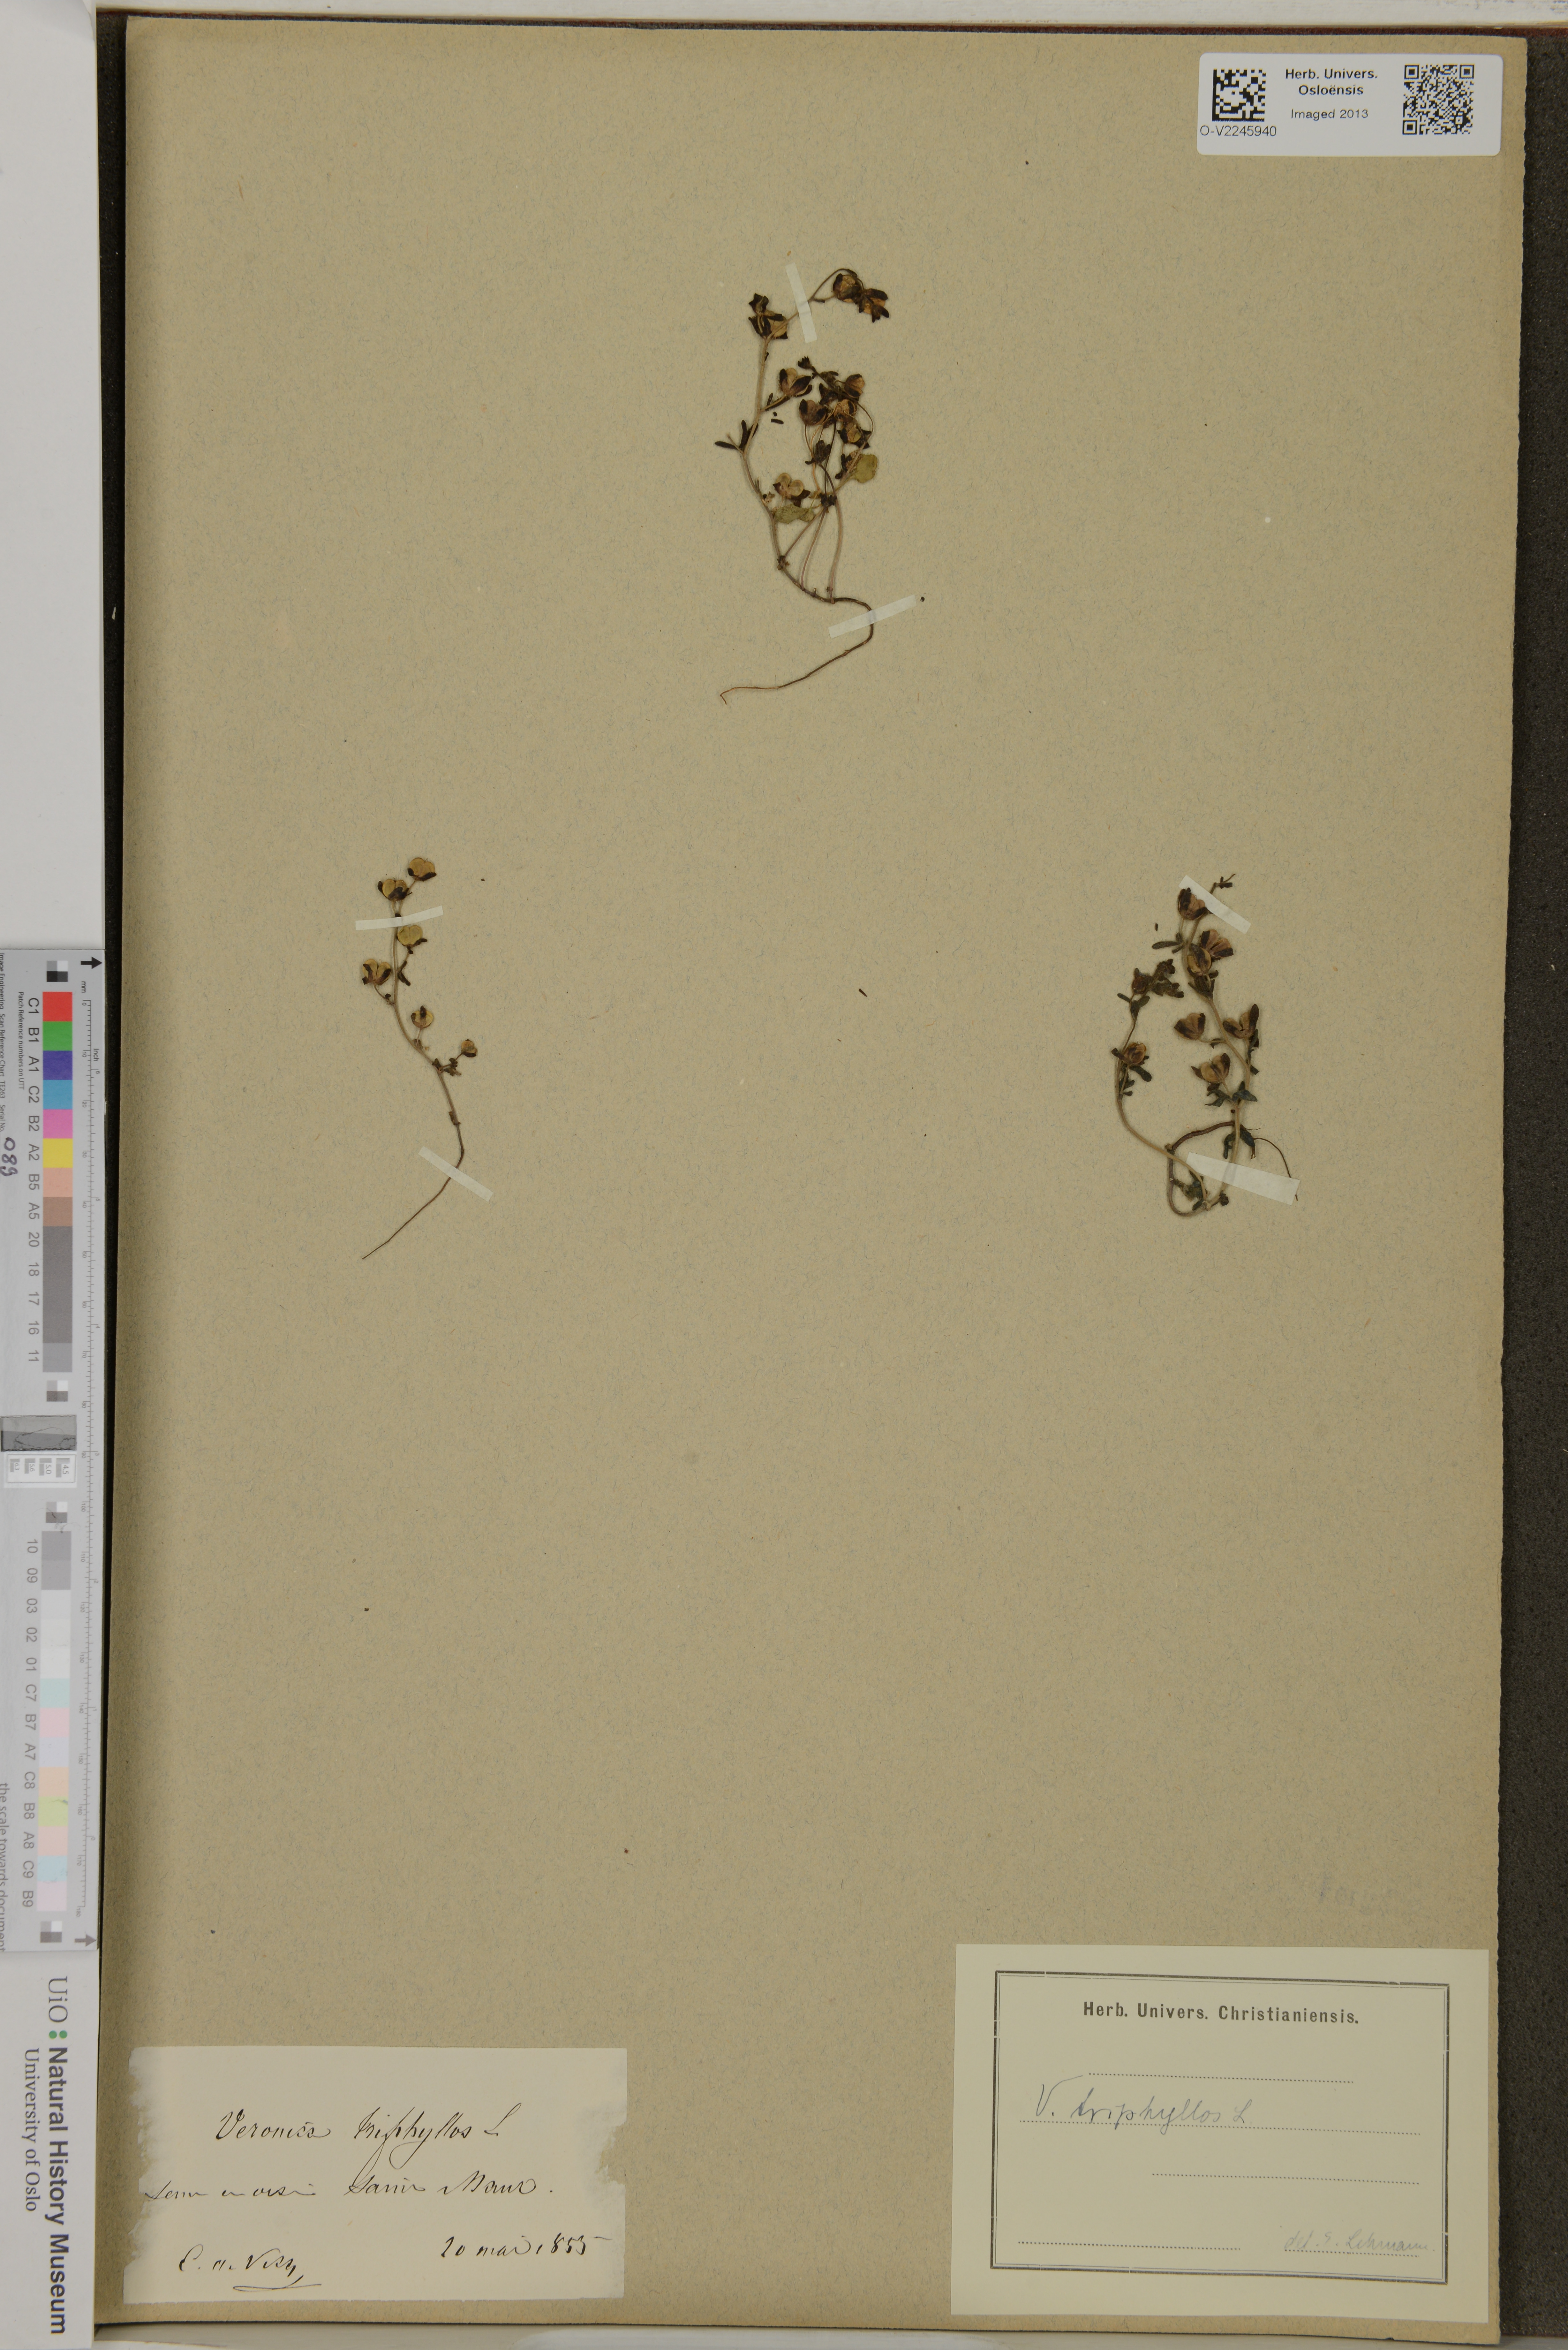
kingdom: Plantae
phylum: Tracheophyta
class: Magnoliopsida
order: Lamiales
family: Plantaginaceae
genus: Veronica
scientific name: Veronica triphyllos
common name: Fingered speedwell
